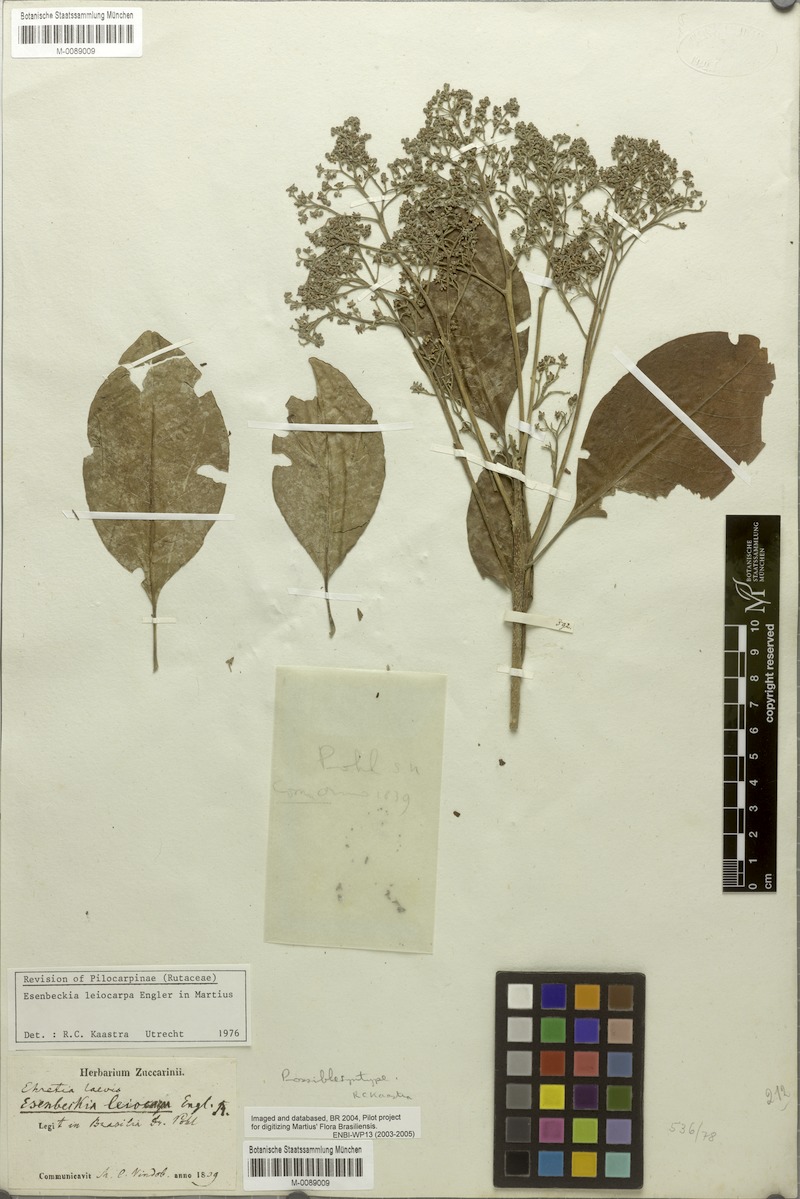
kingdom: Plantae
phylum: Tracheophyta
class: Magnoliopsida
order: Sapindales
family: Rutaceae
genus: Esenbeckia
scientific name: Esenbeckia leiocarpa
